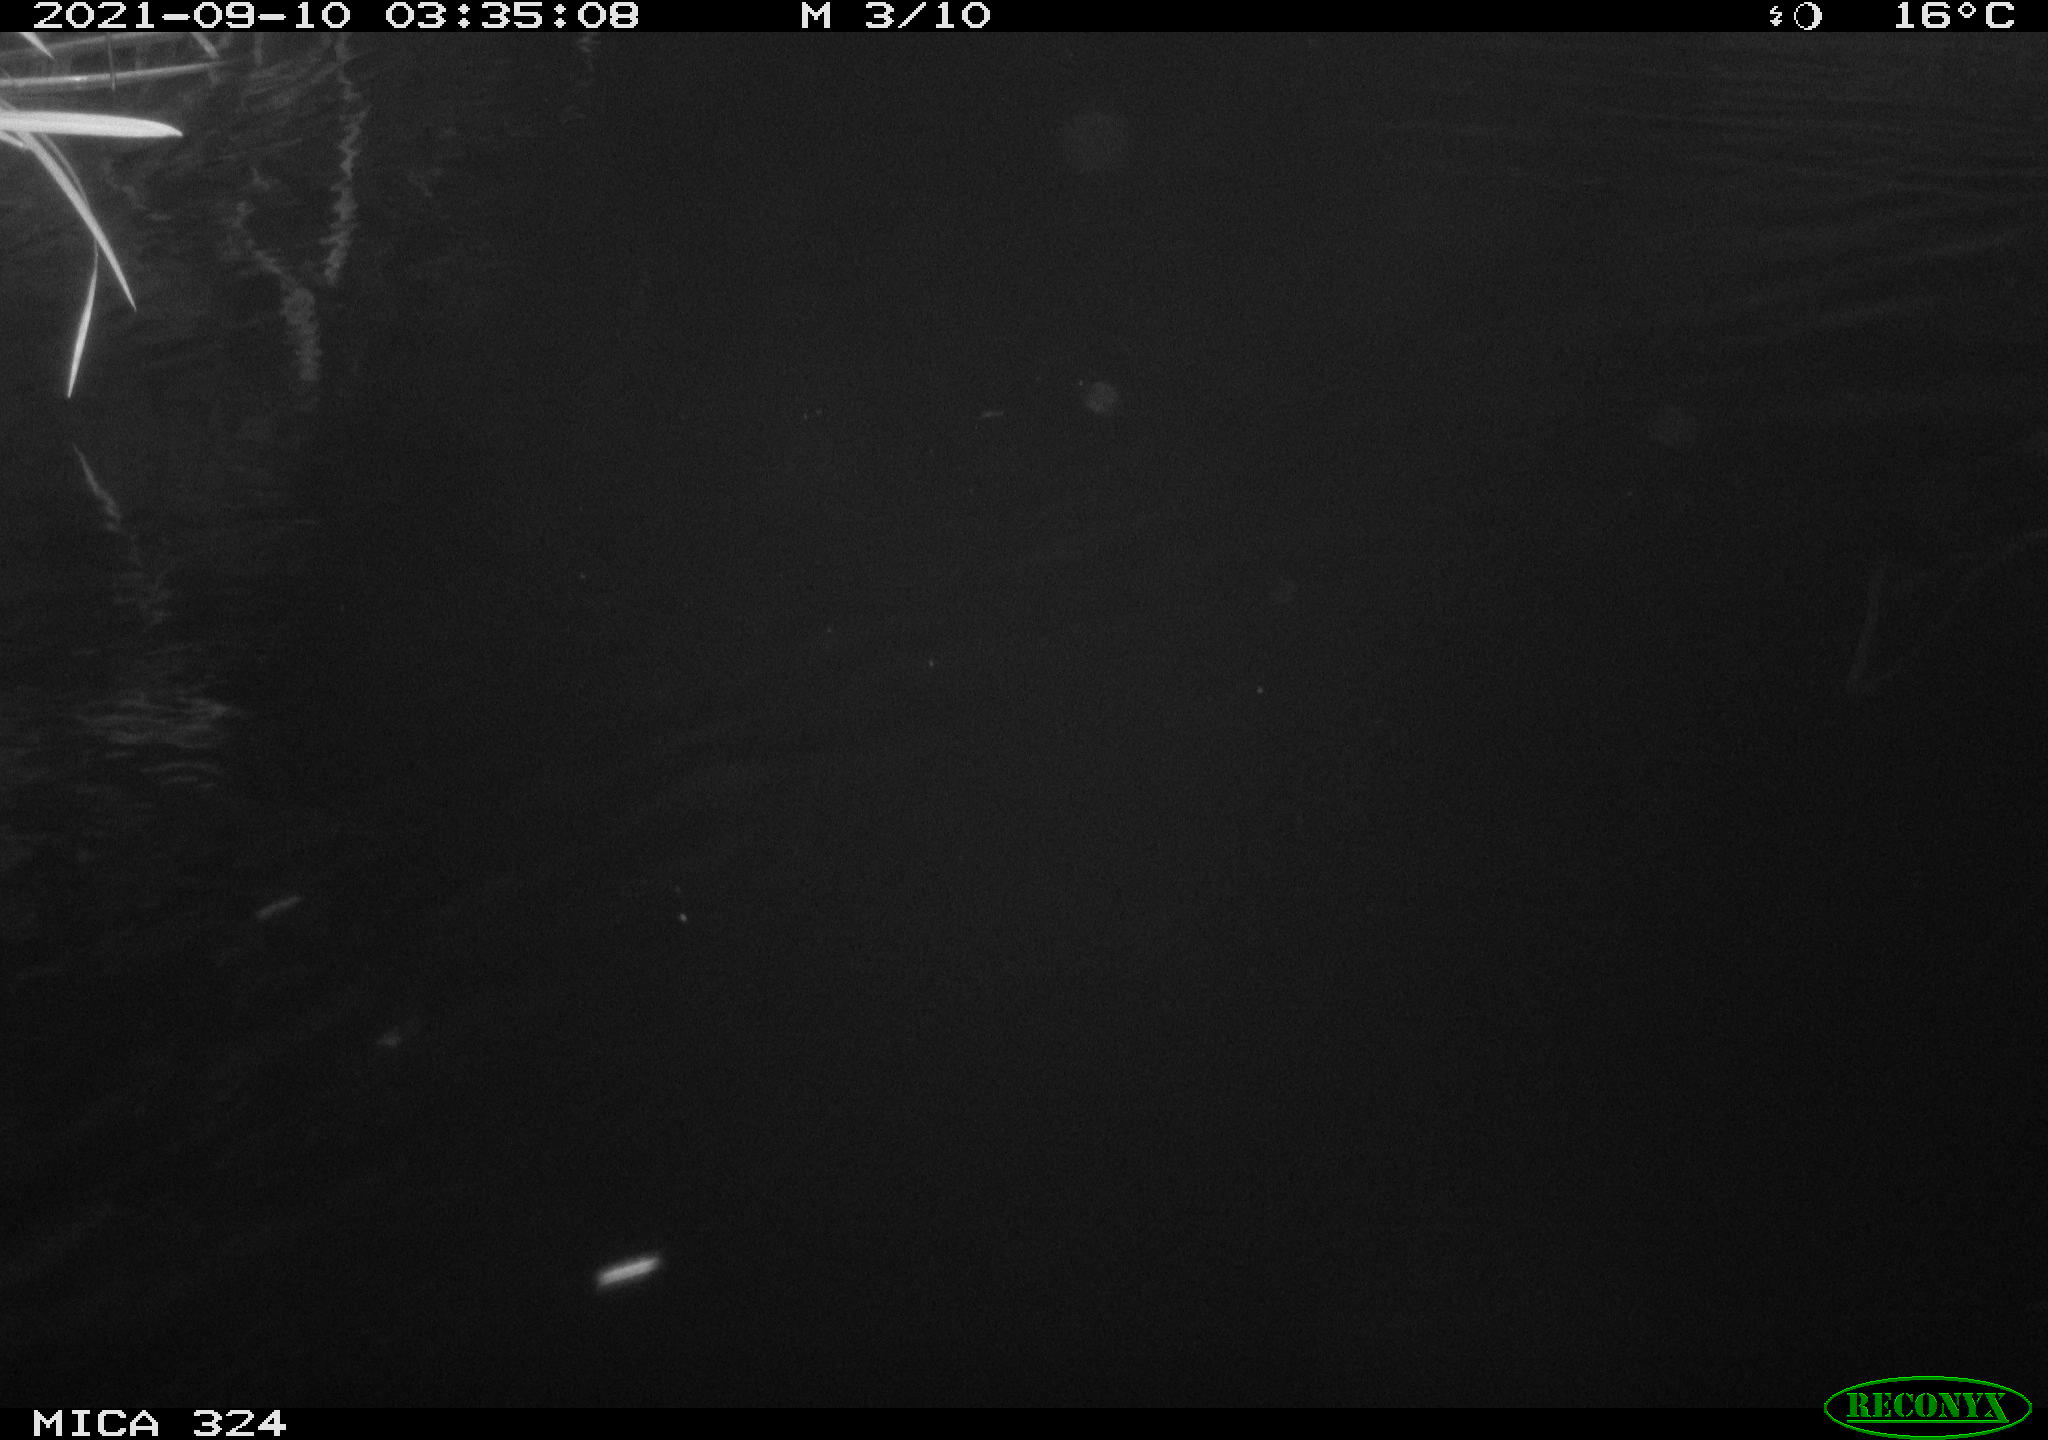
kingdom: Animalia
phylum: Chordata
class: Mammalia
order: Rodentia
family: Cricetidae
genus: Ondatra
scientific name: Ondatra zibethicus
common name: Muskrat
